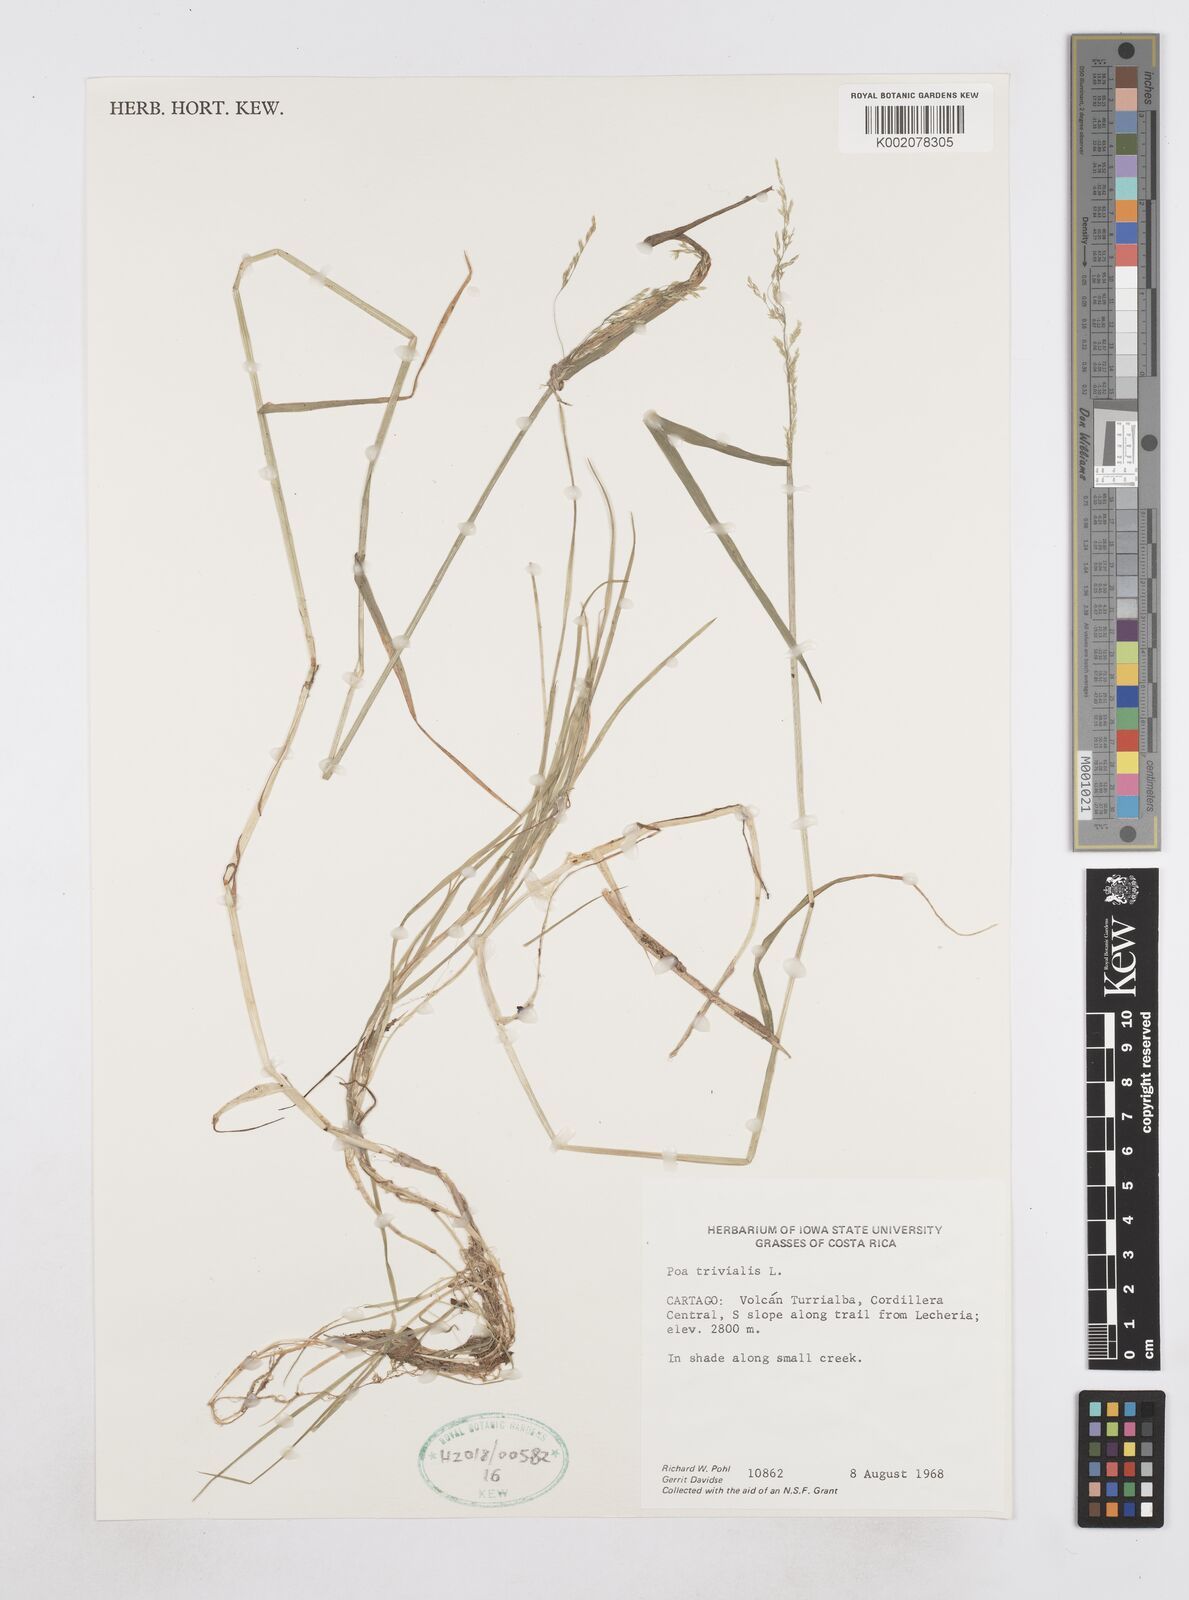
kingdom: Plantae
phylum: Tracheophyta
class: Liliopsida
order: Poales
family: Poaceae
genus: Poa
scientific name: Poa trivialis
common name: Rough bluegrass
